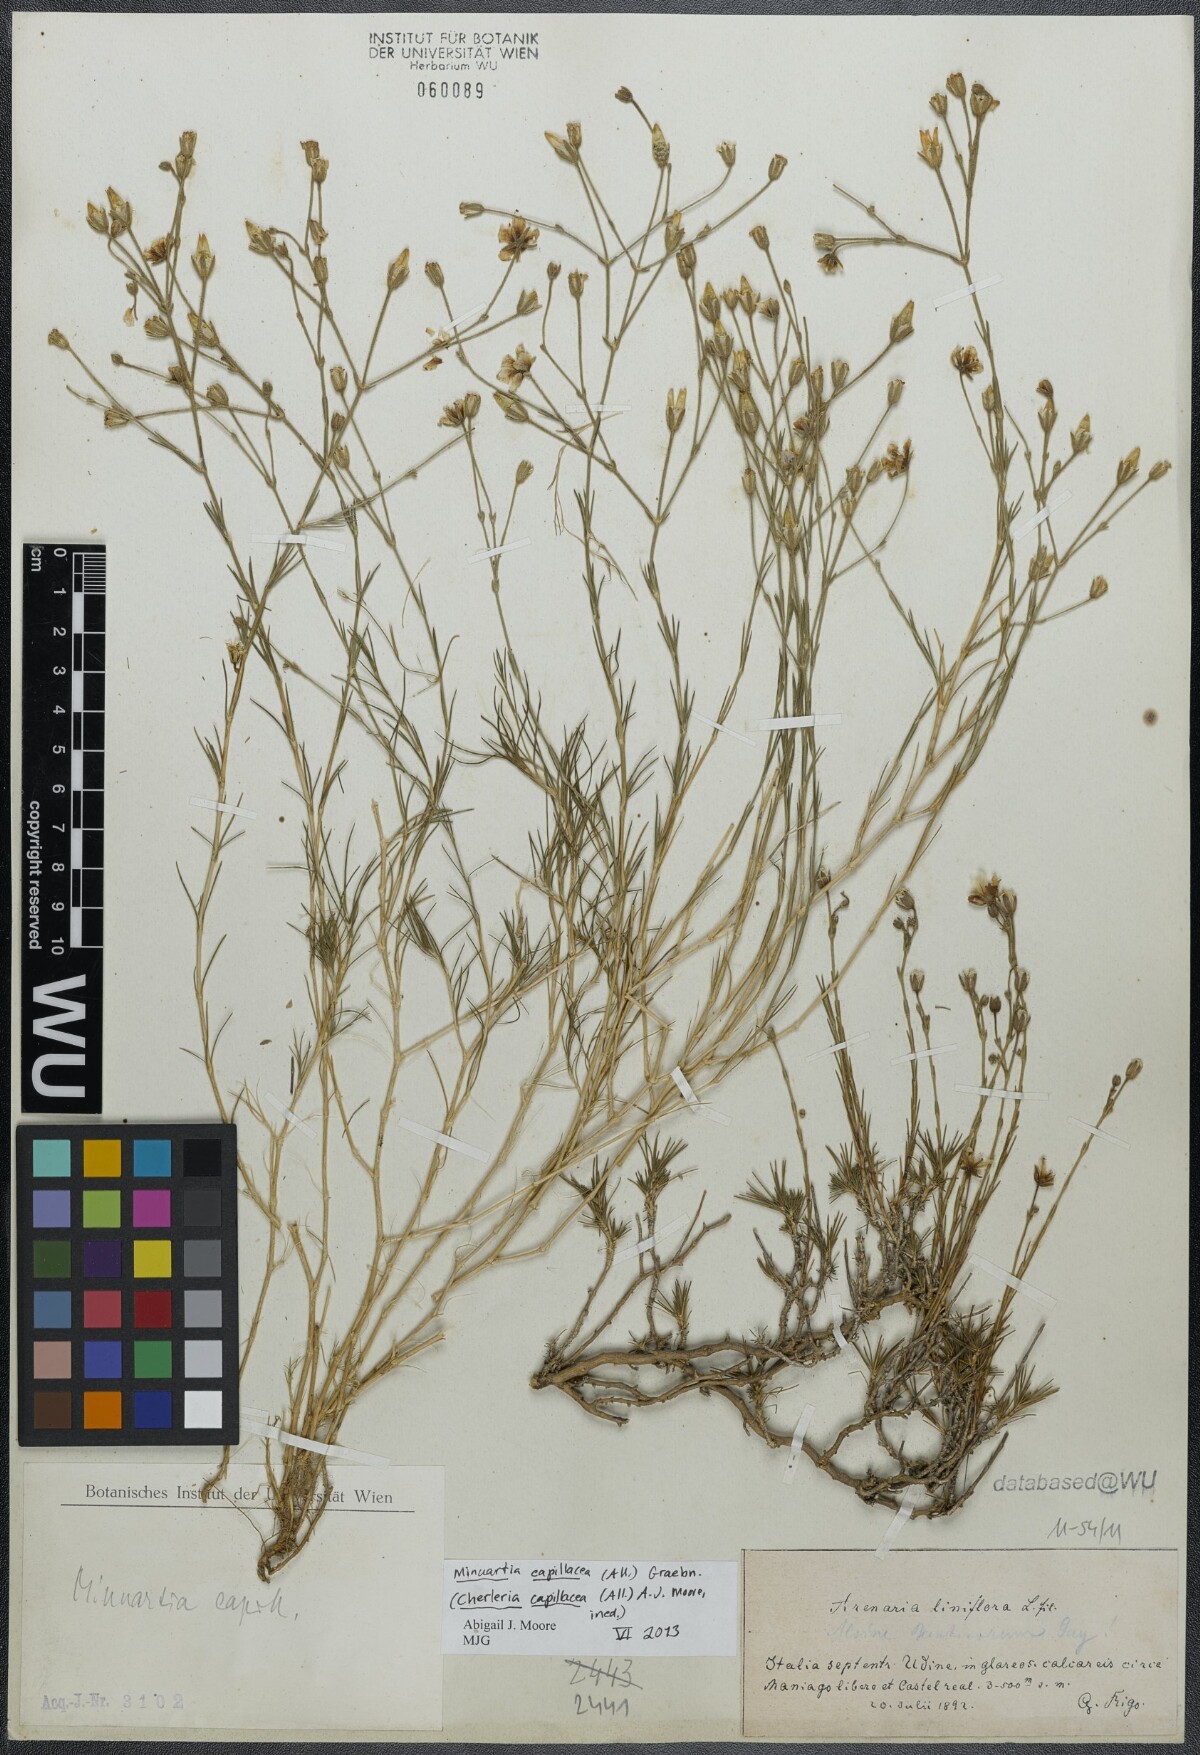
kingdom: Plantae
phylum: Tracheophyta
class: Magnoliopsida
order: Caryophyllales
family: Caryophyllaceae
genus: Cherleria
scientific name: Cherleria capillacea
